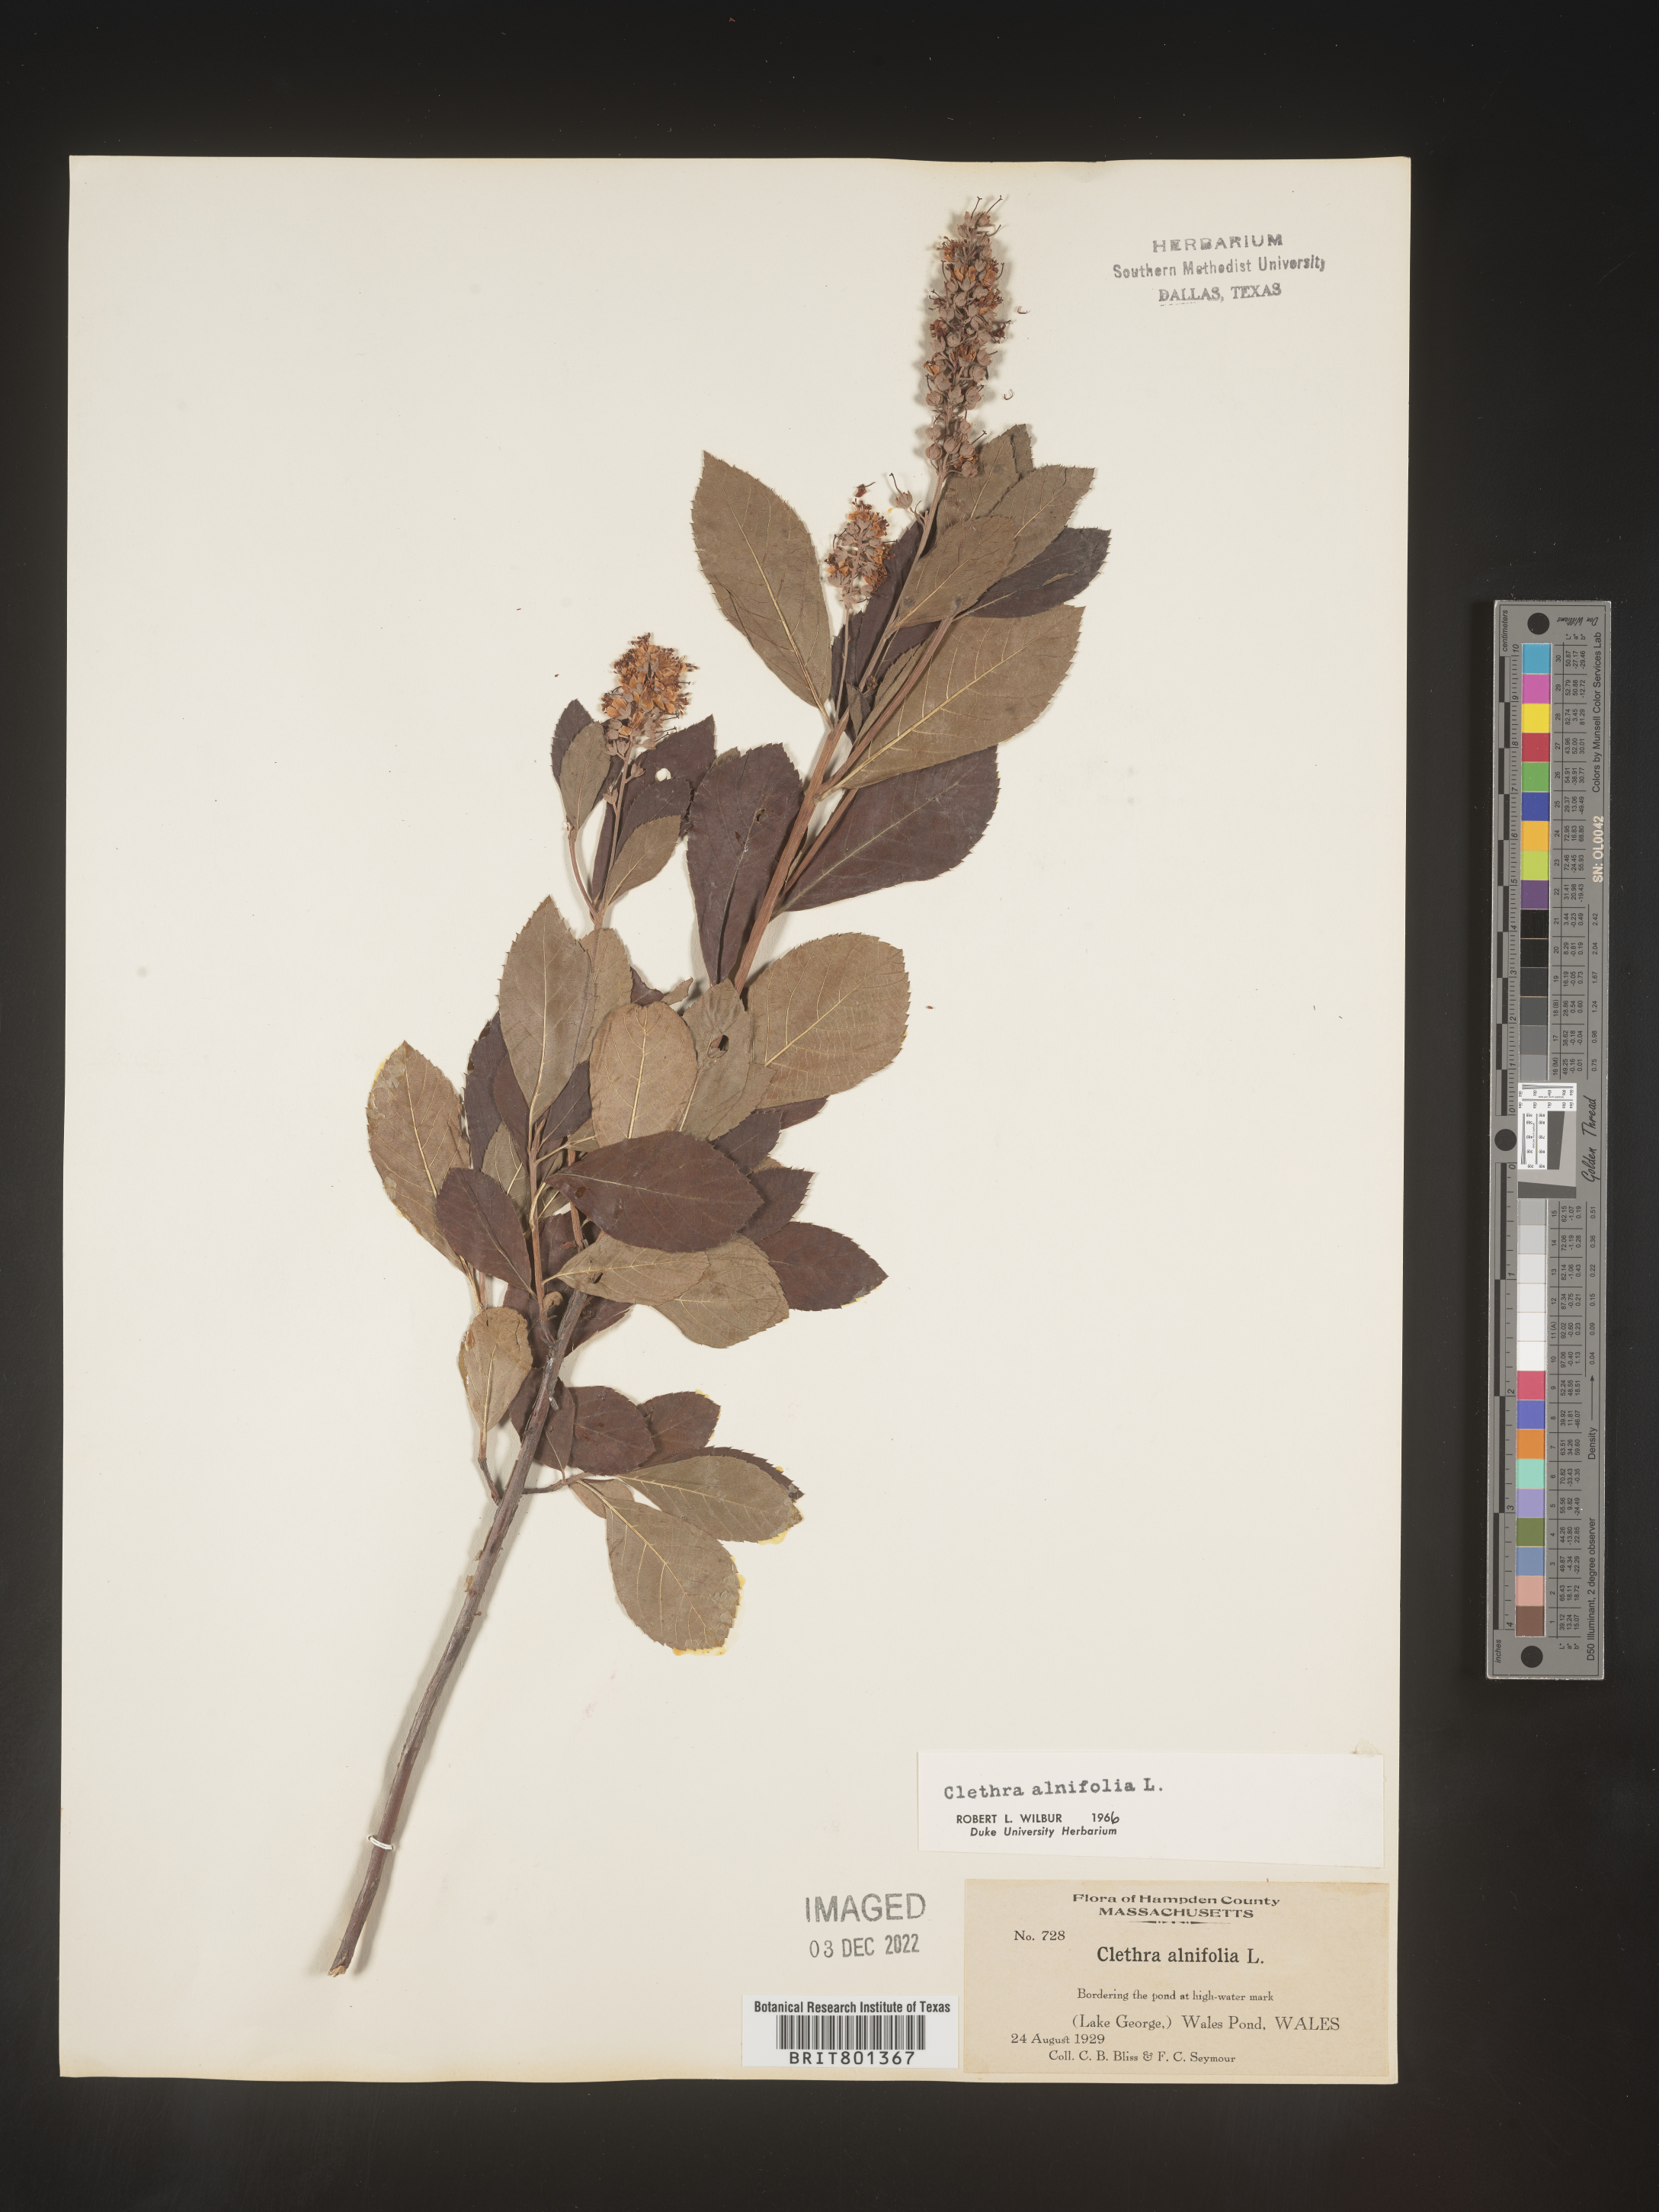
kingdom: Plantae
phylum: Tracheophyta
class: Magnoliopsida
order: Ericales
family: Clethraceae
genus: Clethra
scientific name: Clethra alnifolia
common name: Sweet pepperbush
